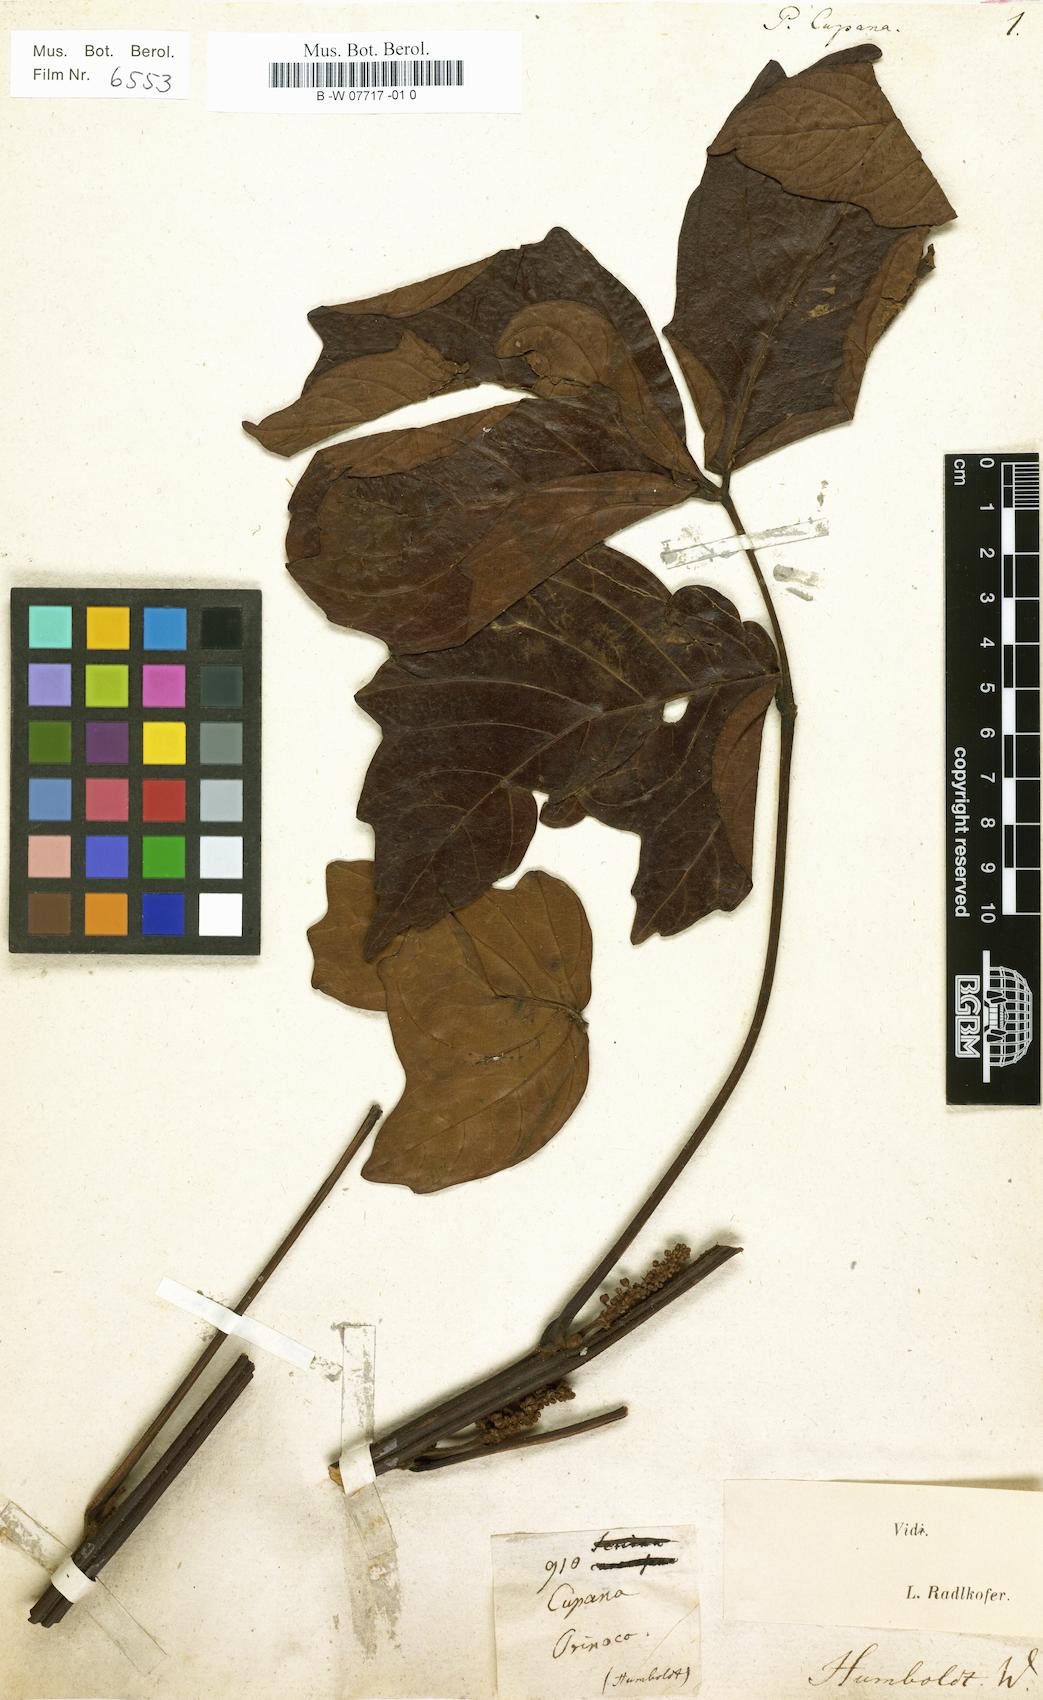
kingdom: Plantae
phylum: Tracheophyta
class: Magnoliopsida
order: Sapindales
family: Sapindaceae
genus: Paullinia
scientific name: Paullinia cupana
